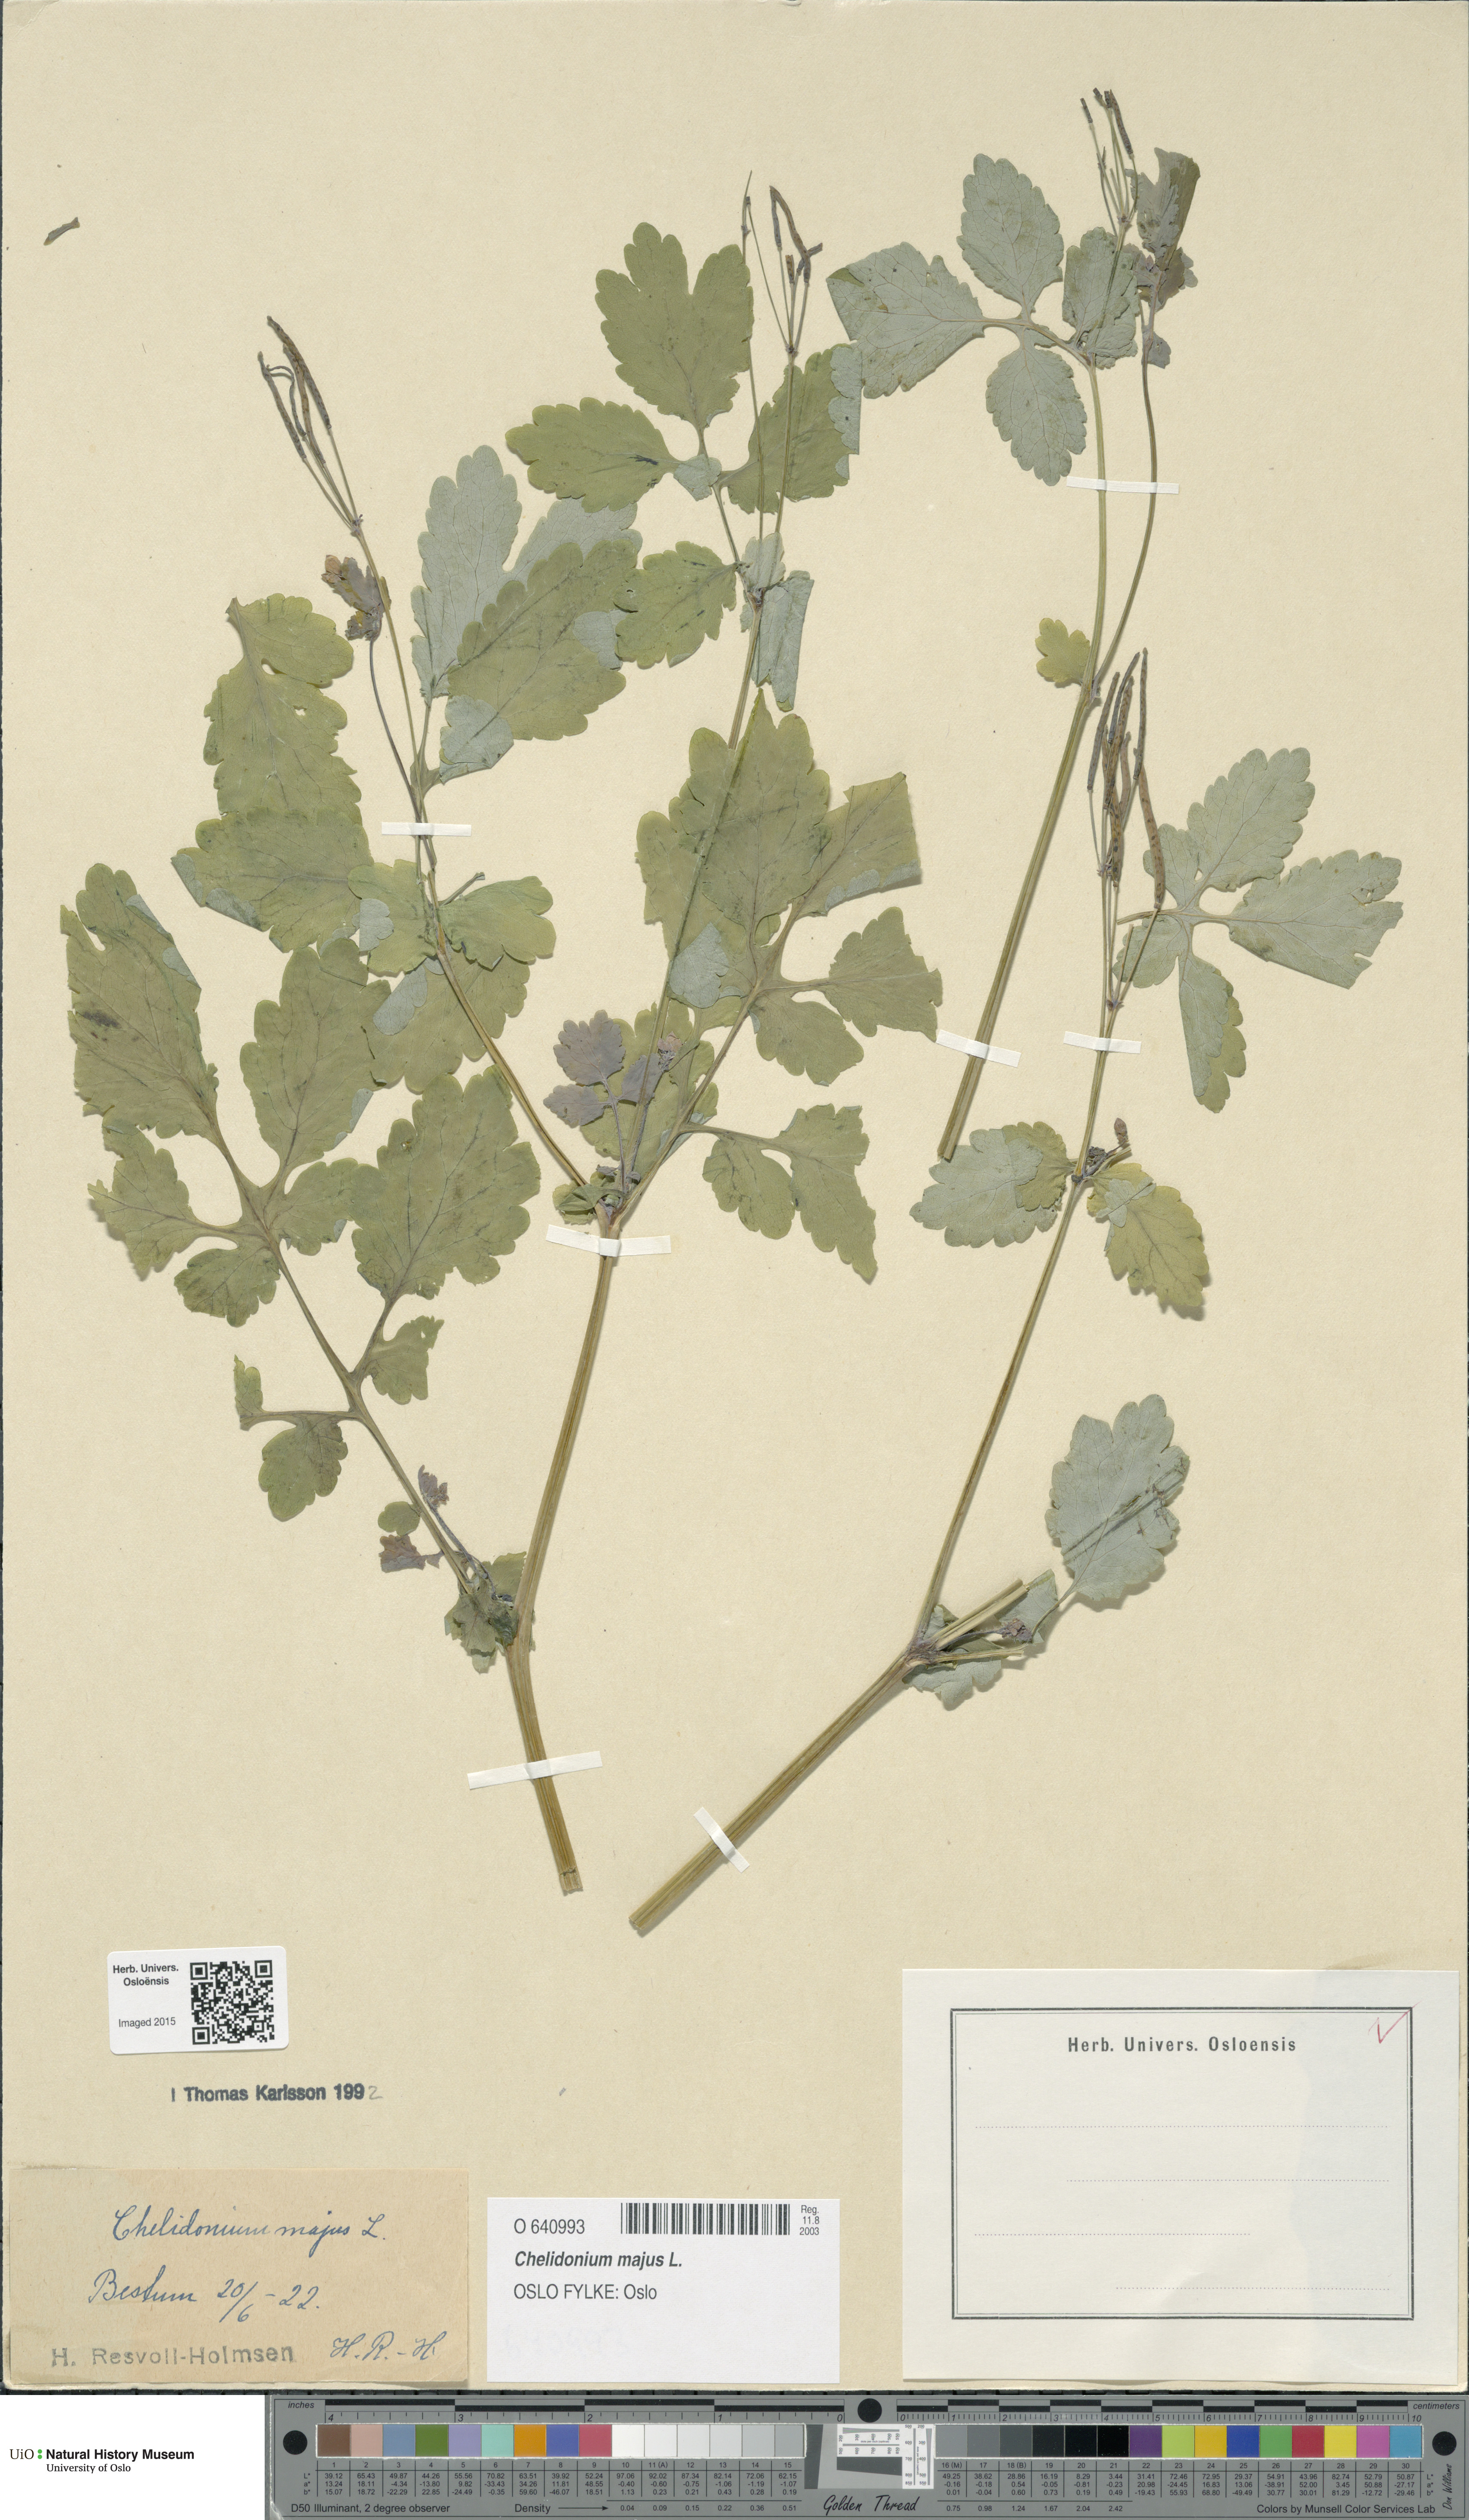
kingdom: Plantae
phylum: Tracheophyta
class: Magnoliopsida
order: Ranunculales
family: Papaveraceae
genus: Chelidonium
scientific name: Chelidonium majus
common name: Greater celandine
